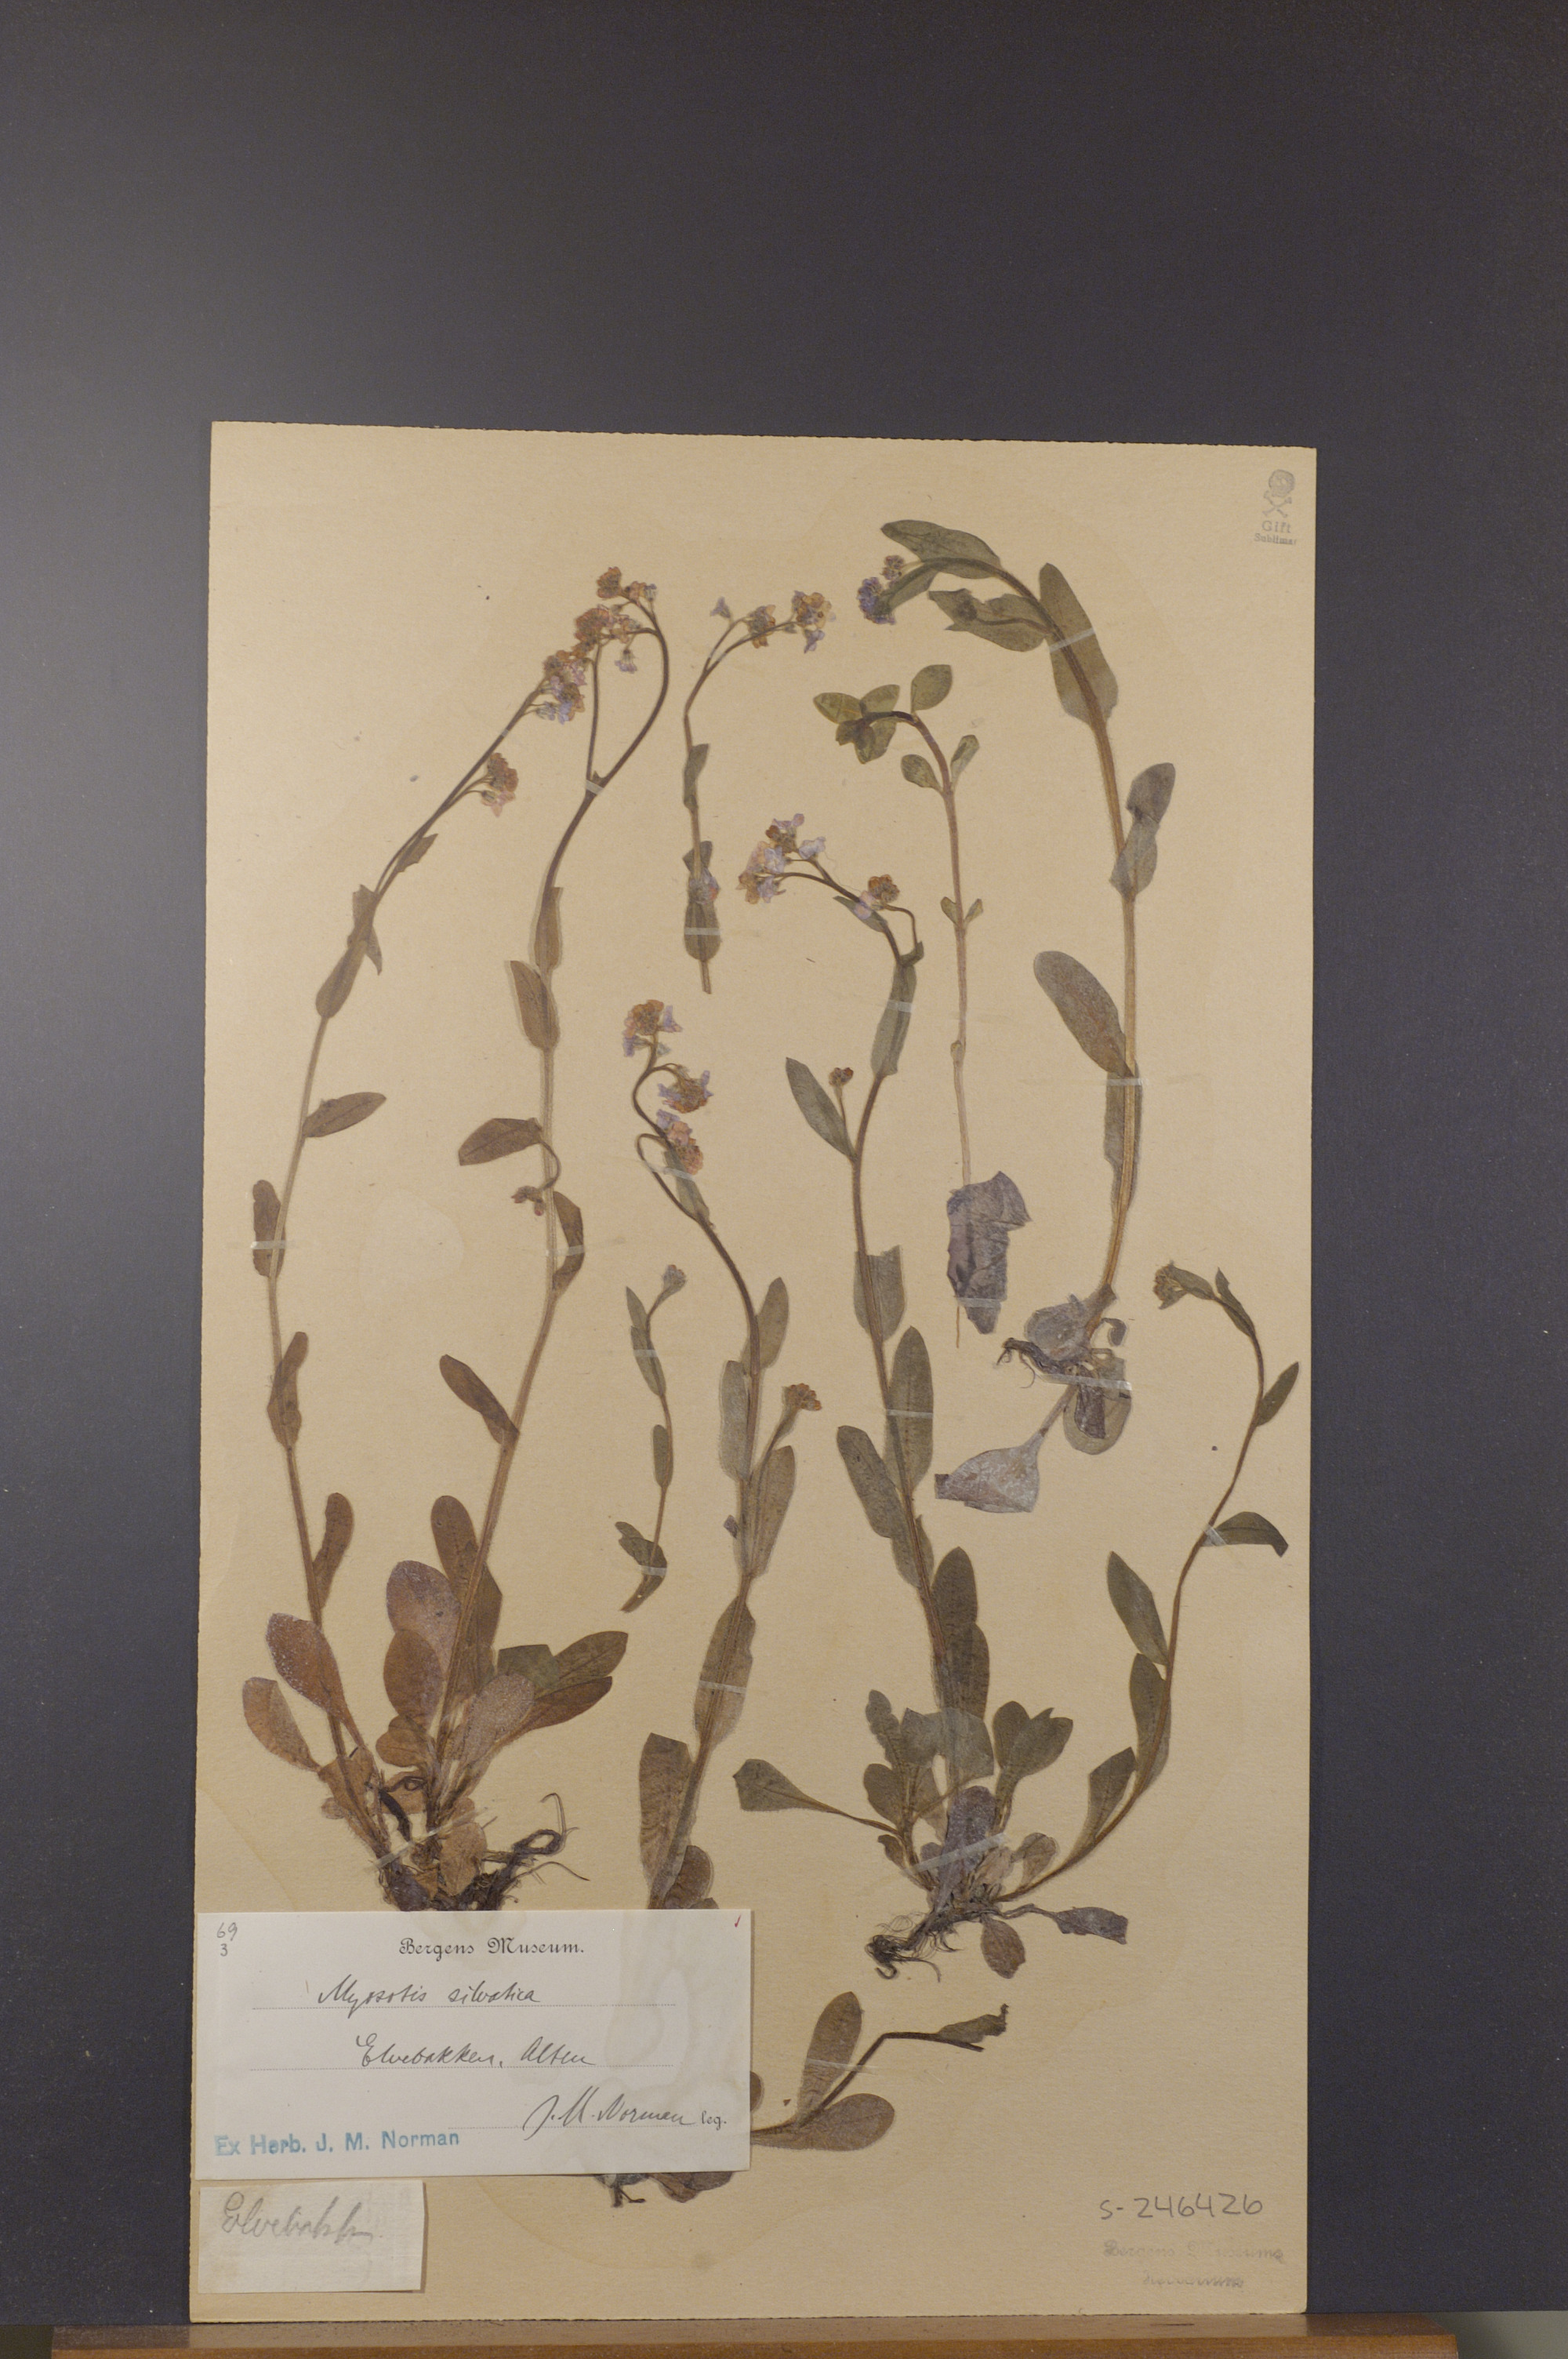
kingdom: Plantae
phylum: Tracheophyta
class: Magnoliopsida
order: Boraginales
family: Boraginaceae
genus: Myosotis
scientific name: Myosotis decumbens
